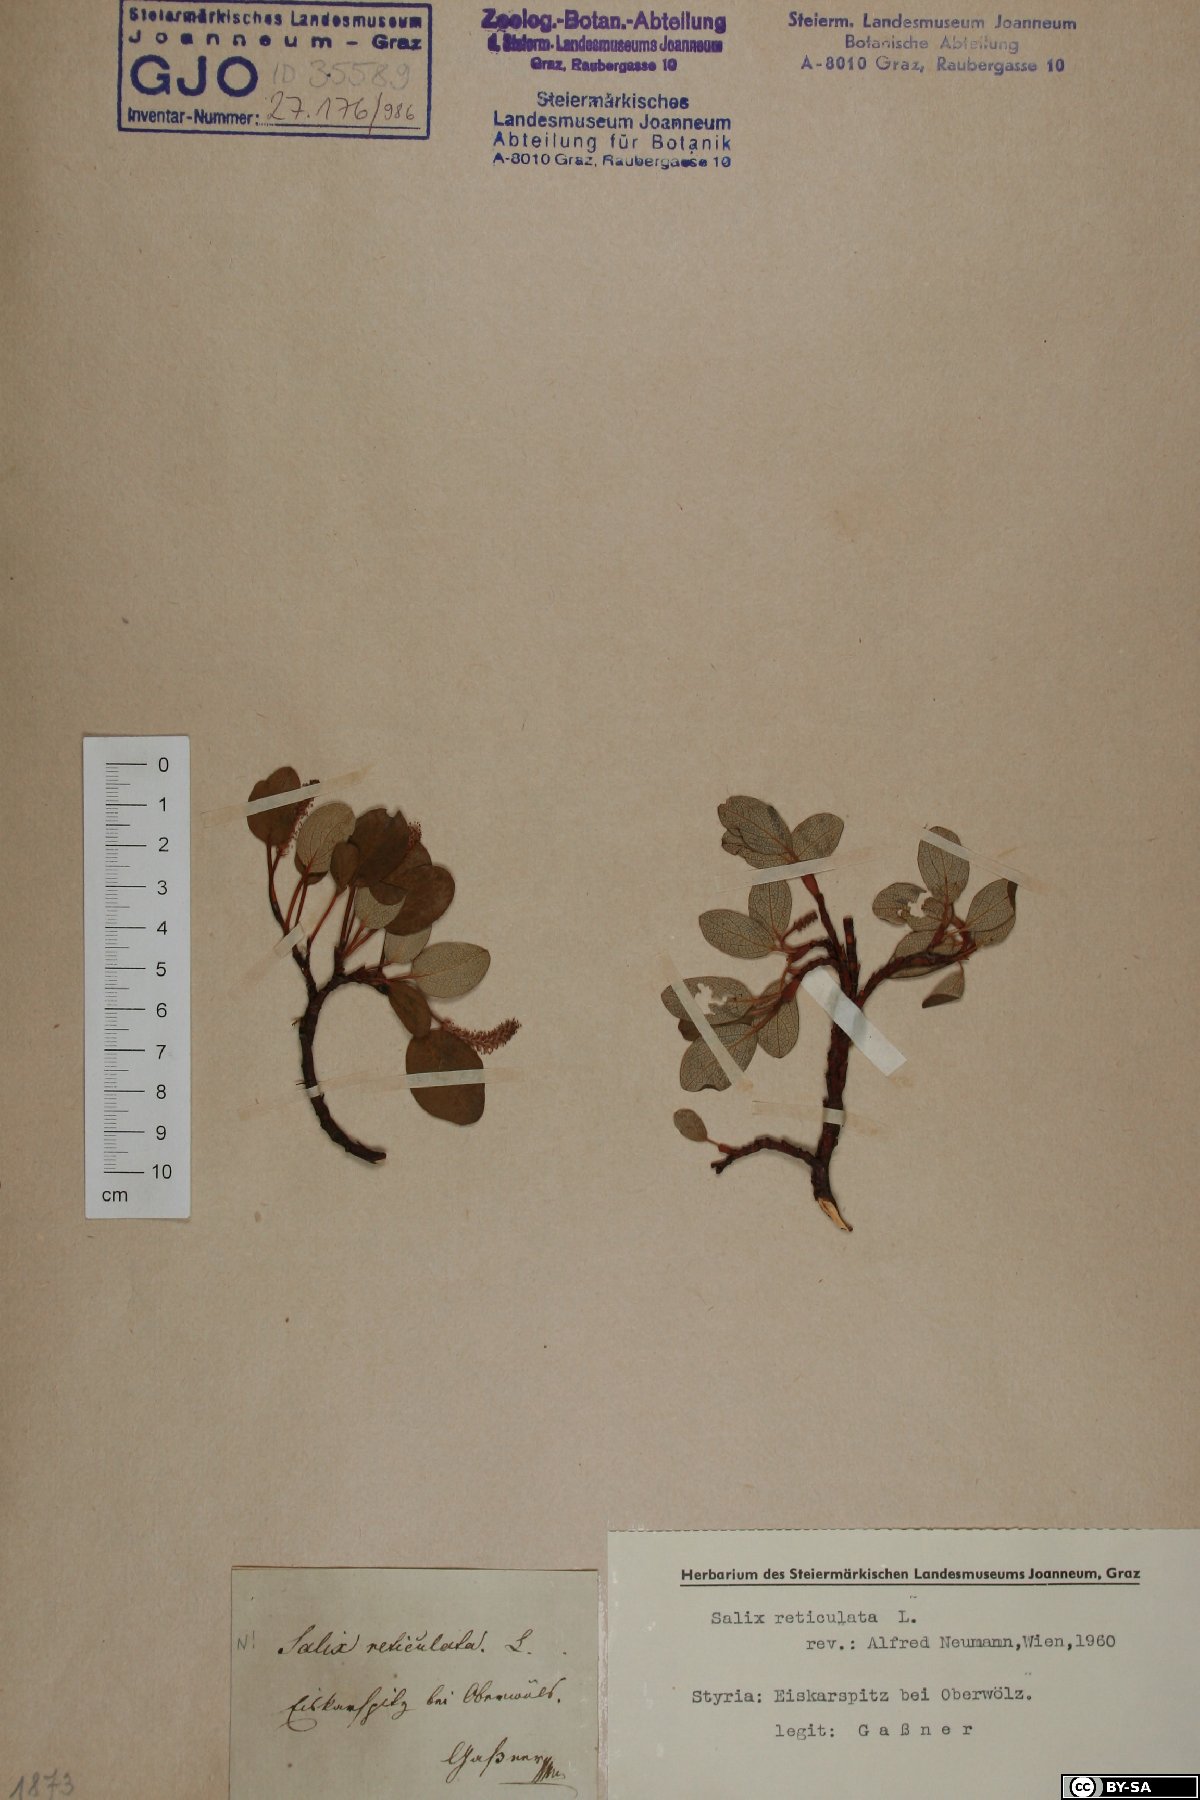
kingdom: Plantae
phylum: Tracheophyta
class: Magnoliopsida
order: Malpighiales
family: Salicaceae
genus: Salix
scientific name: Salix reticulata
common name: Net-leaved willow
